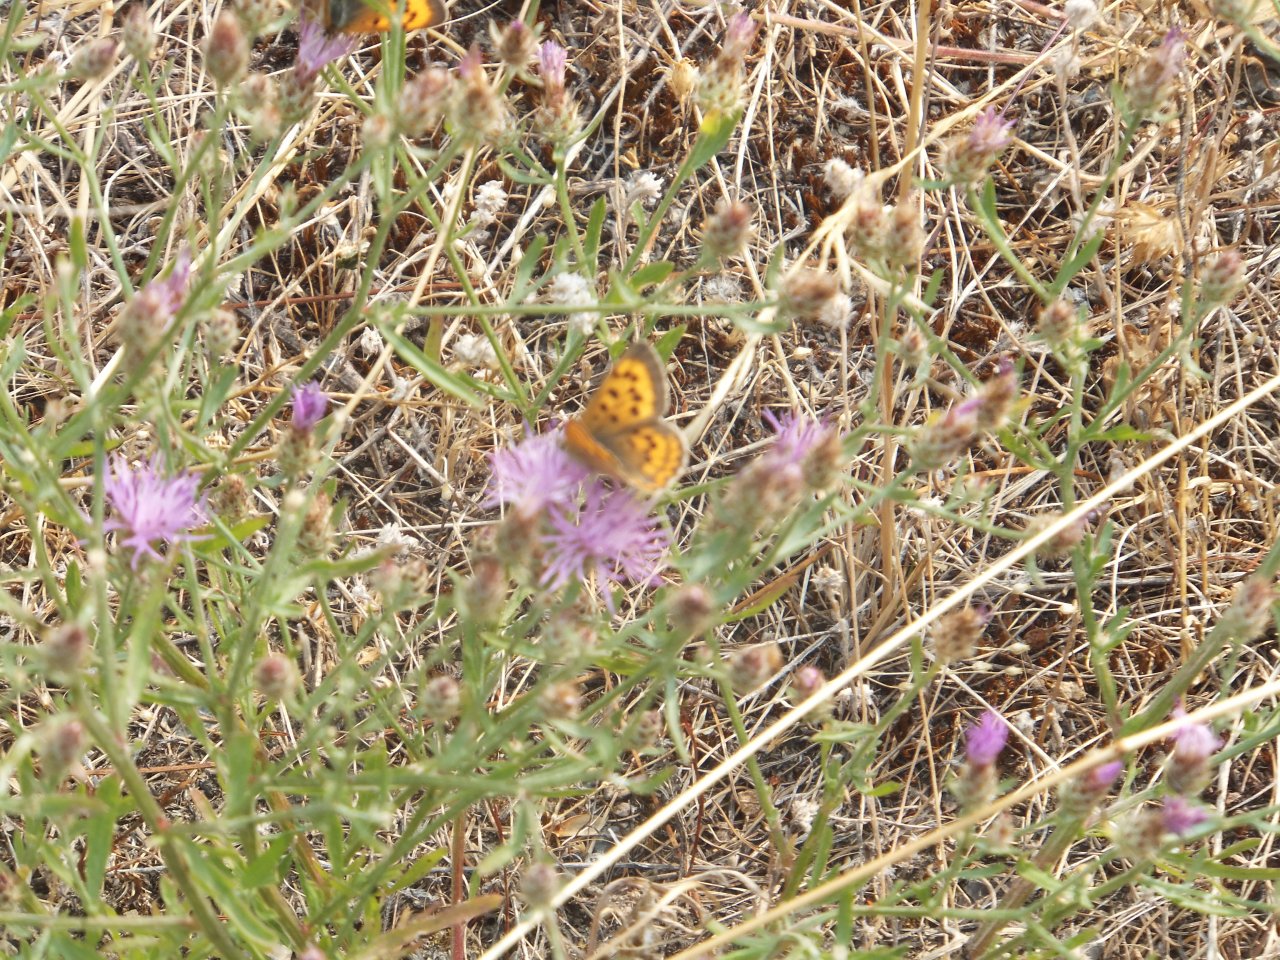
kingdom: Animalia
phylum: Arthropoda
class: Insecta
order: Lepidoptera
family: Sesiidae
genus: Sesia
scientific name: Sesia Lycaena helloides
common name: Purplish Copper
